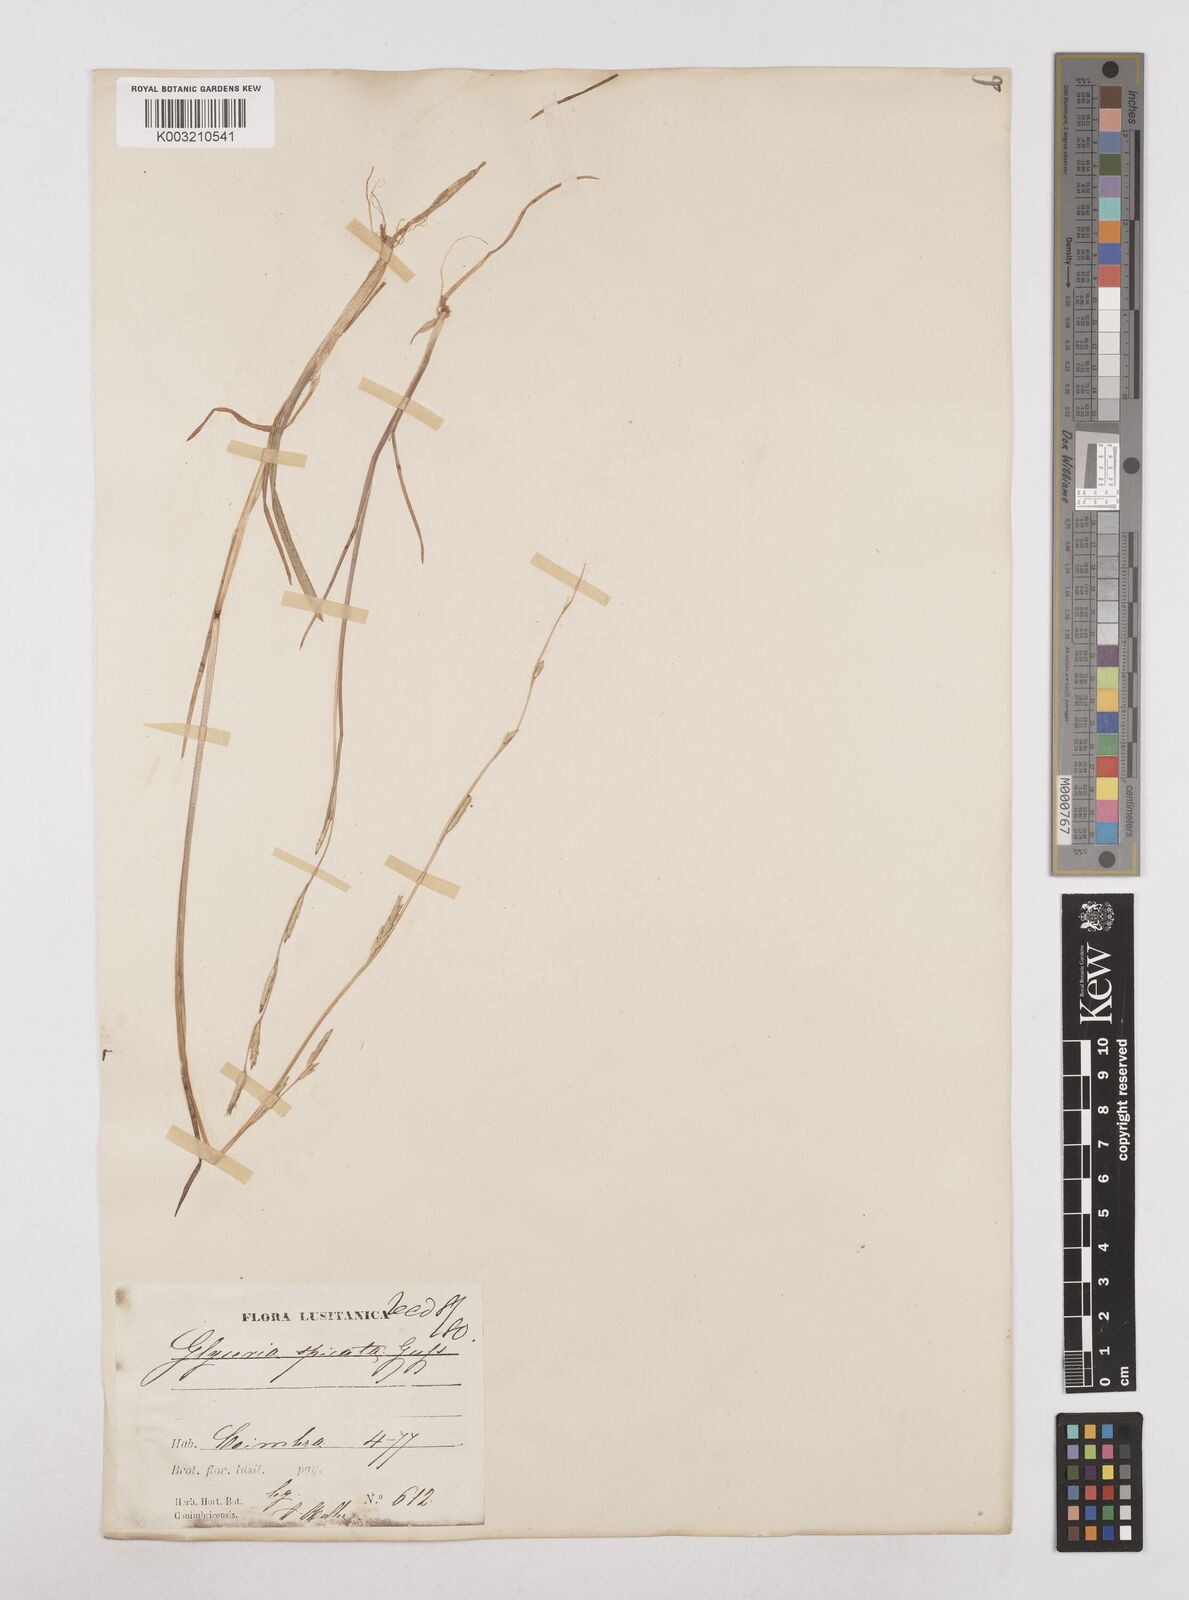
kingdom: Plantae
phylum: Tracheophyta
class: Liliopsida
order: Poales
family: Poaceae
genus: Glyceria
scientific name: Glyceria declinata
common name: Small sweet-grass
